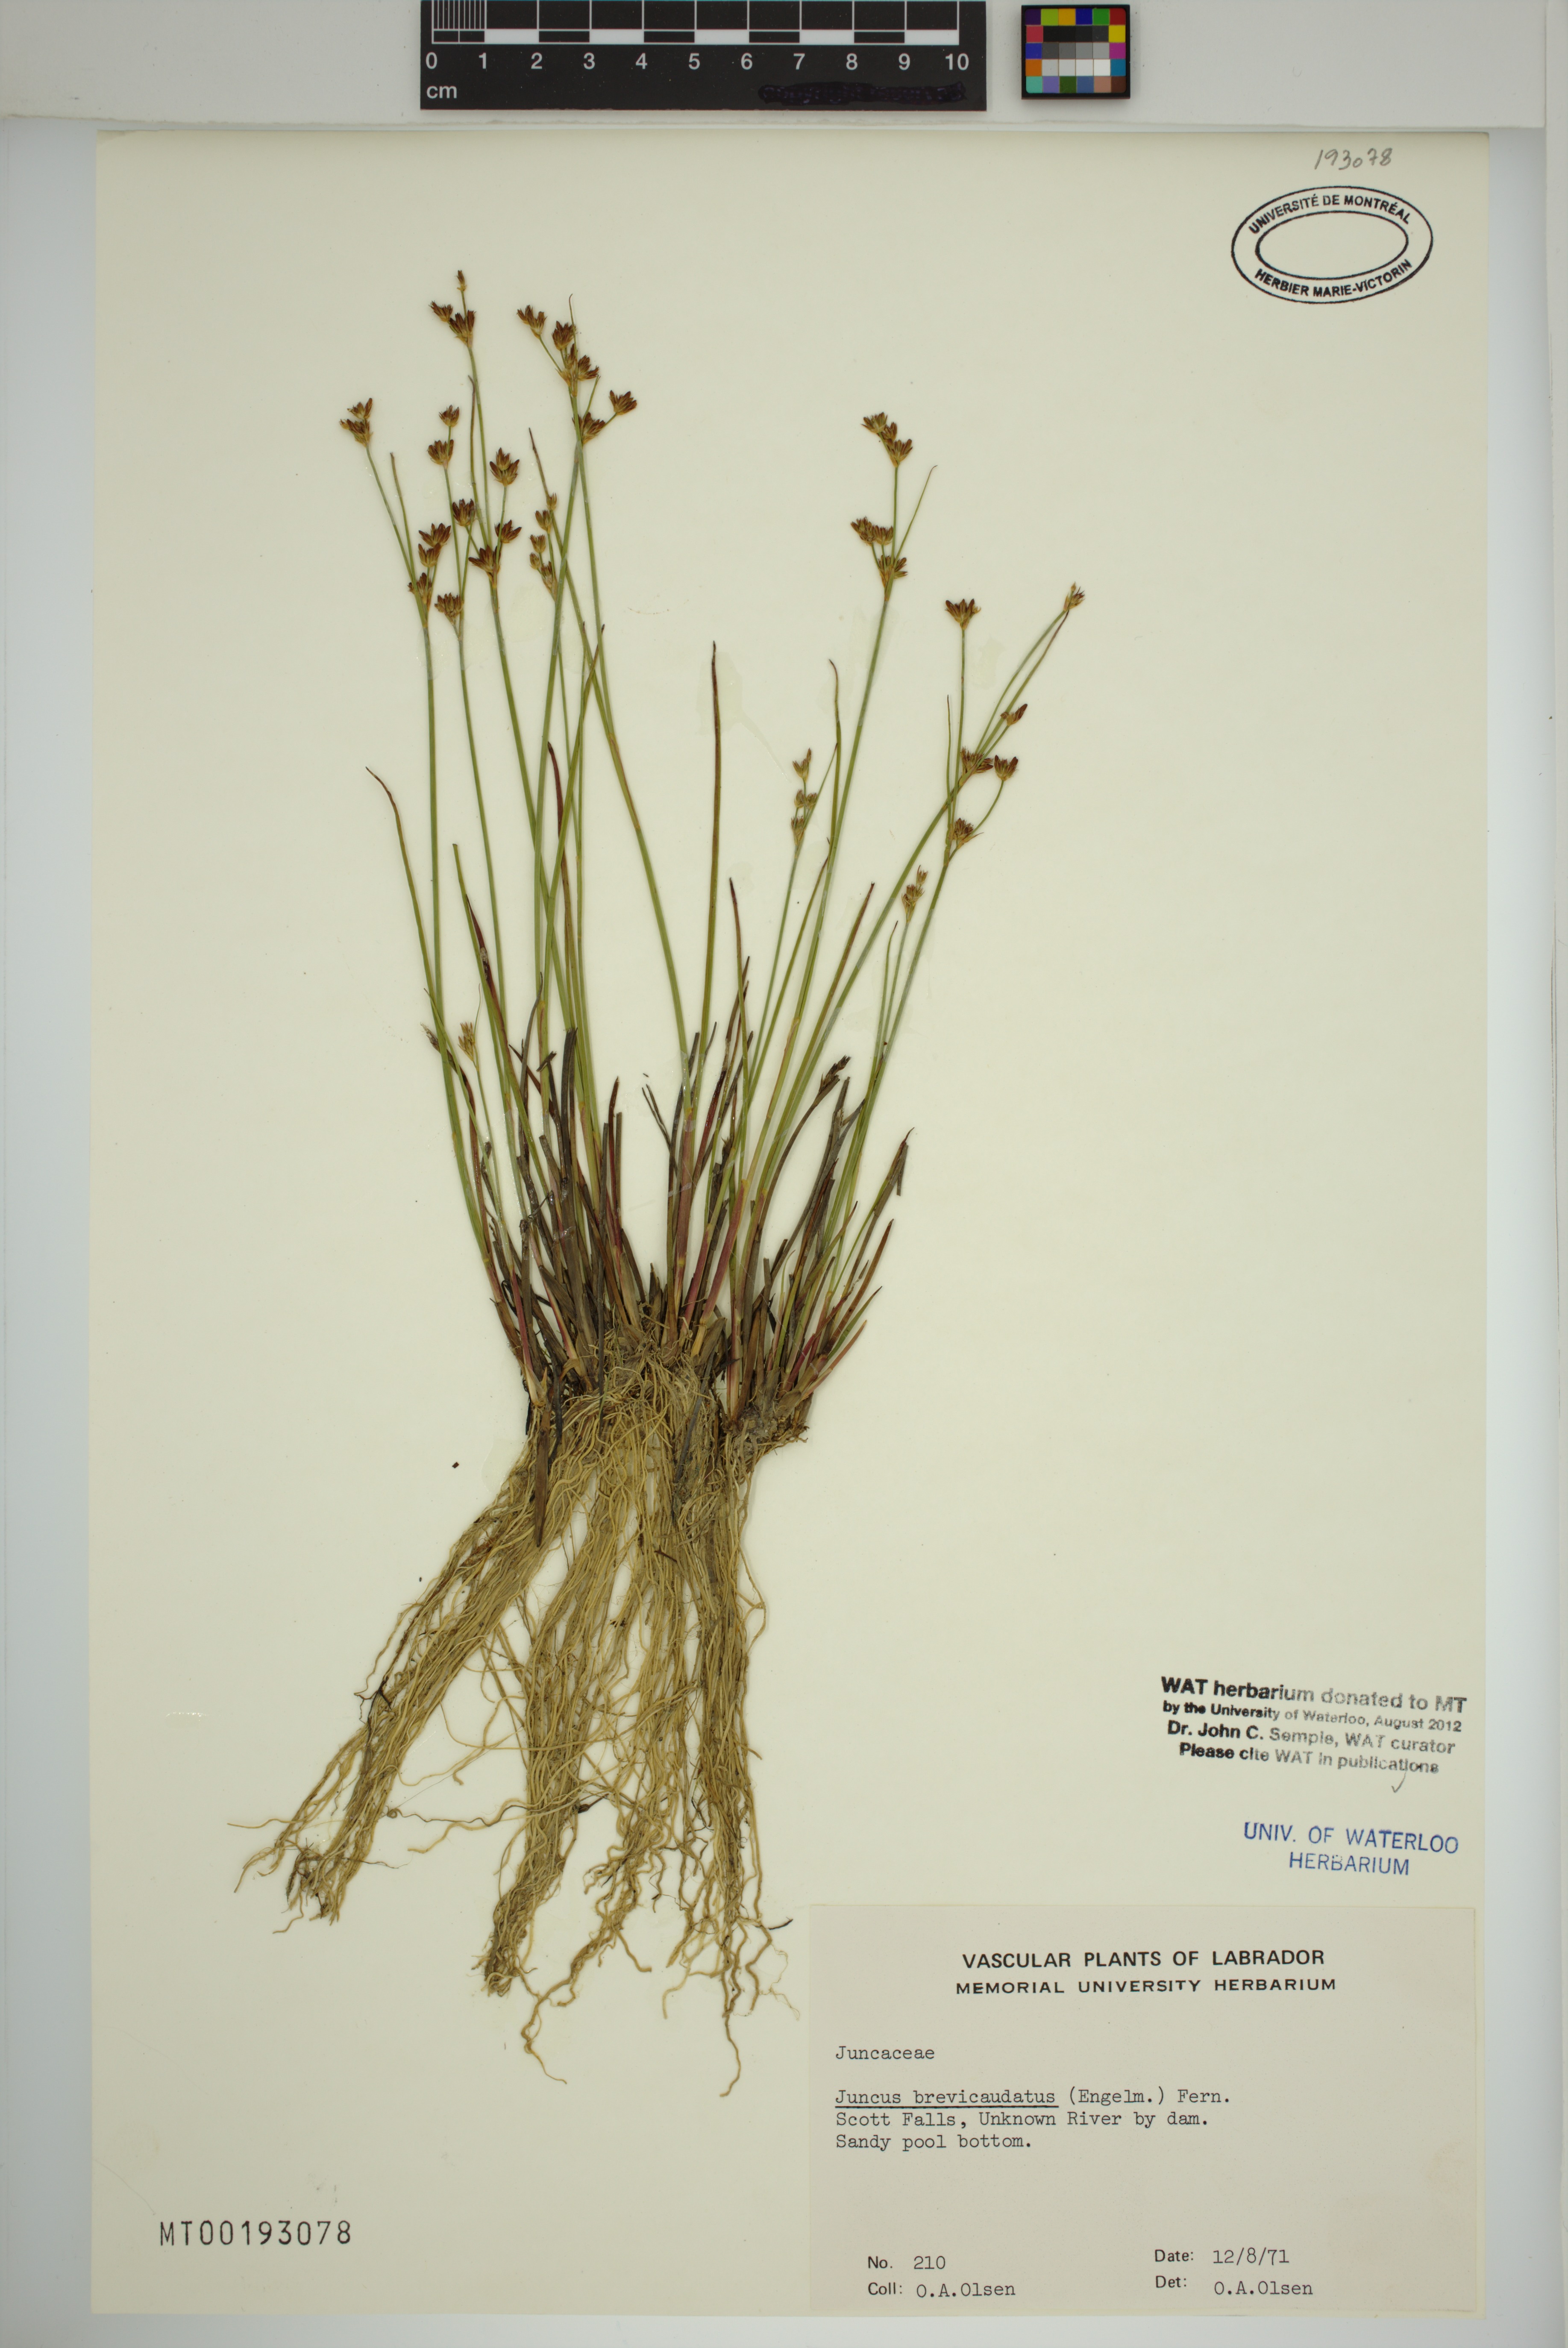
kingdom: Plantae
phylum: Tracheophyta
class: Liliopsida
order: Poales
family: Juncaceae
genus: Juncus
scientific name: Juncus brevicaudatus
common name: Narrow-panicle rush
